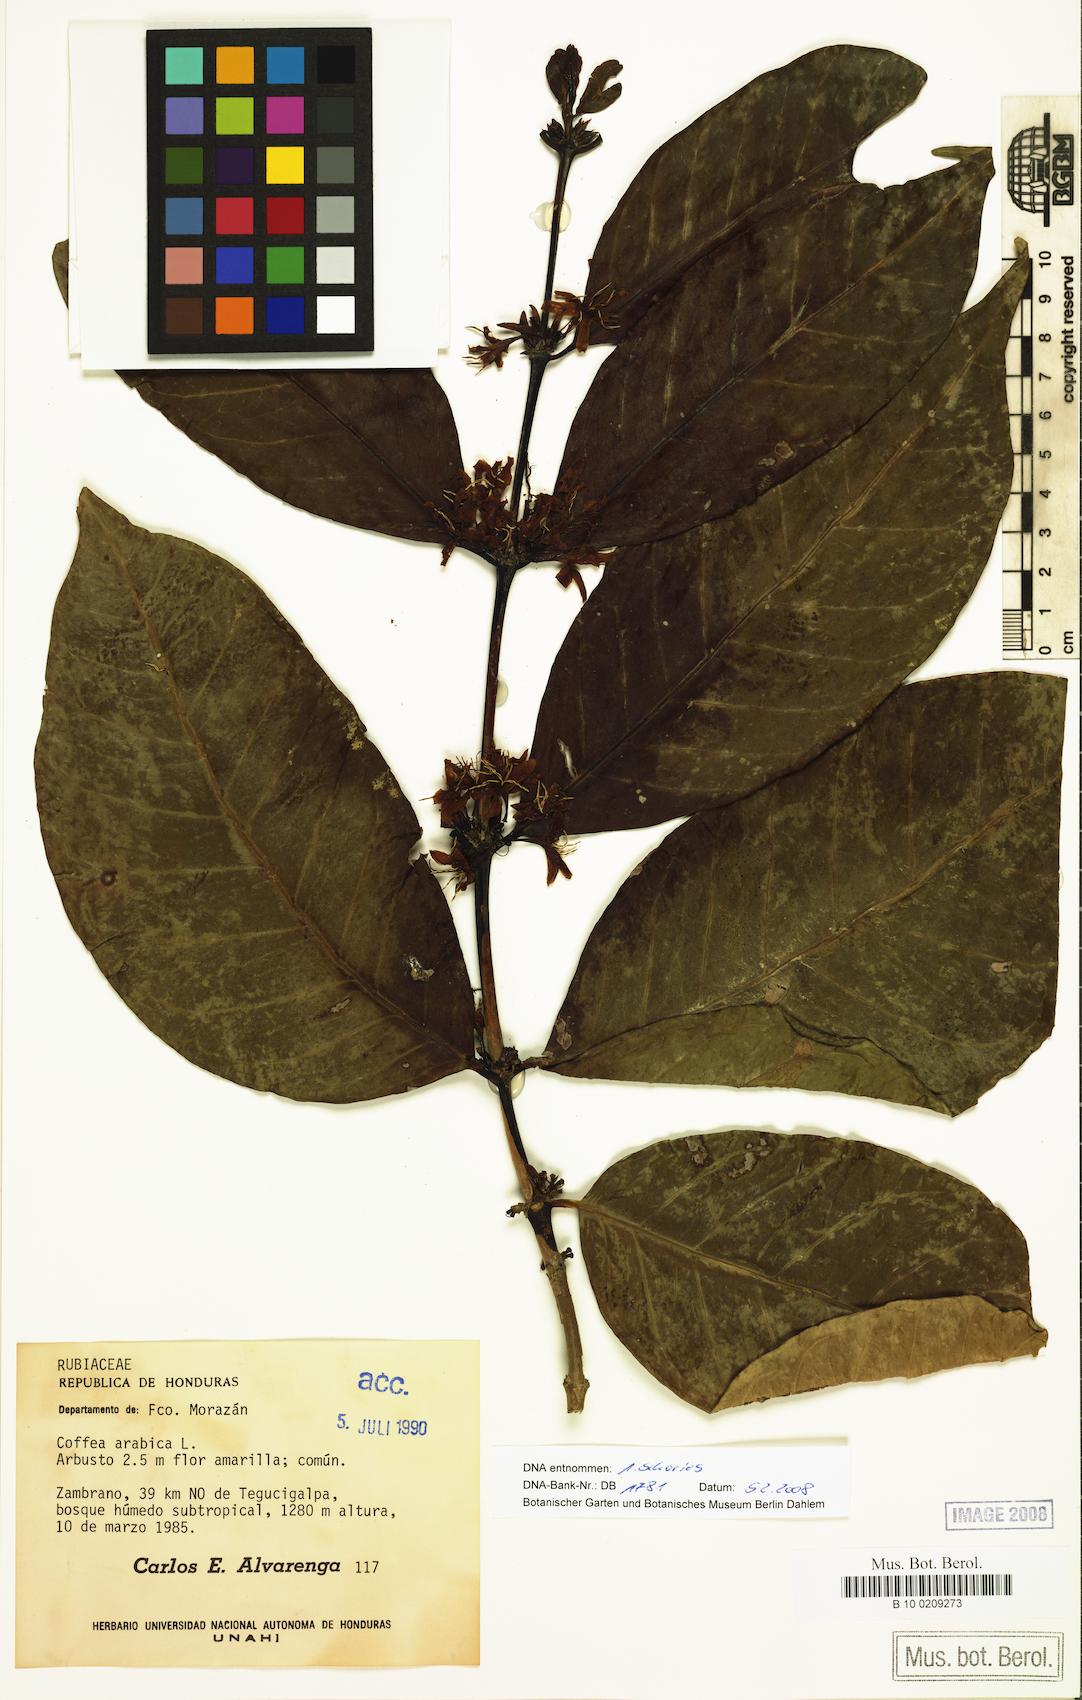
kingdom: Plantae
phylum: Tracheophyta
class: Magnoliopsida
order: Gentianales
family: Rubiaceae
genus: Coffea
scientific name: Coffea arabica
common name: Coffee
